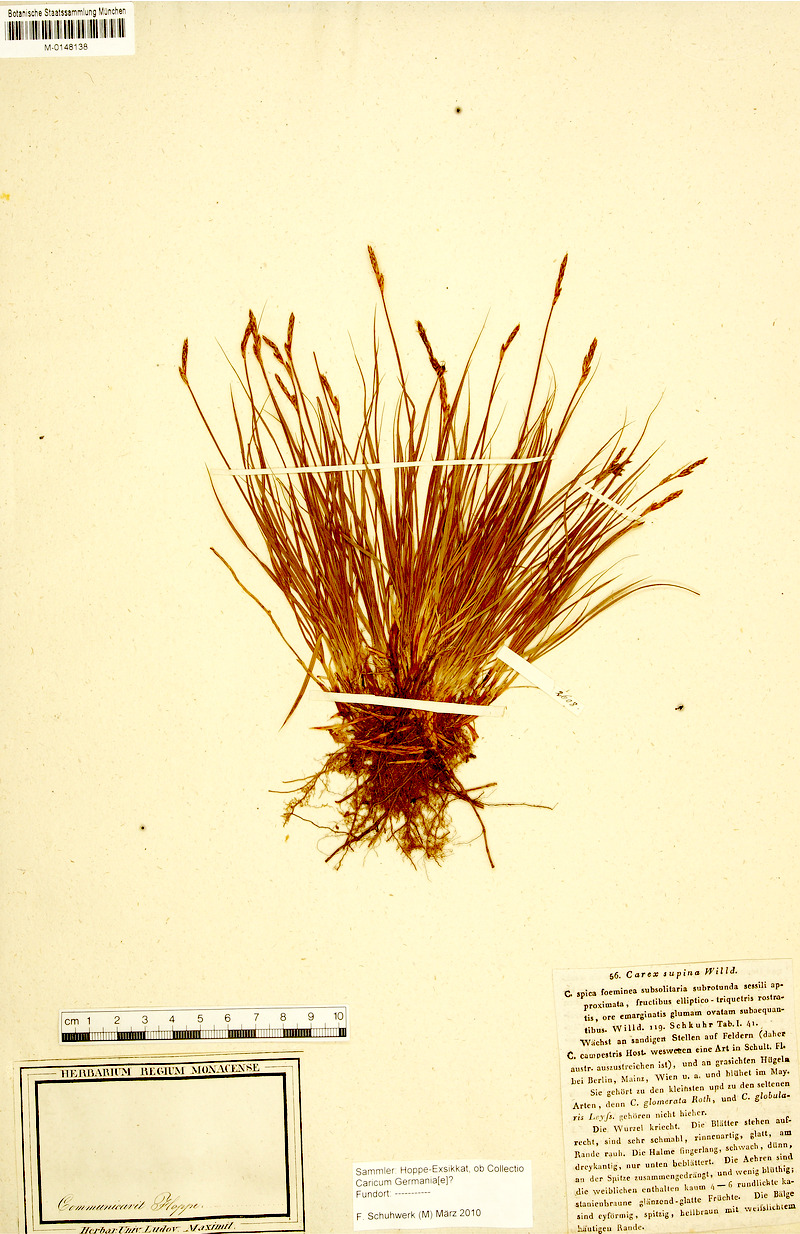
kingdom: Plantae
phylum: Tracheophyta
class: Liliopsida
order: Poales
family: Cyperaceae
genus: Carex
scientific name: Carex supina
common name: Lying-back sedge
